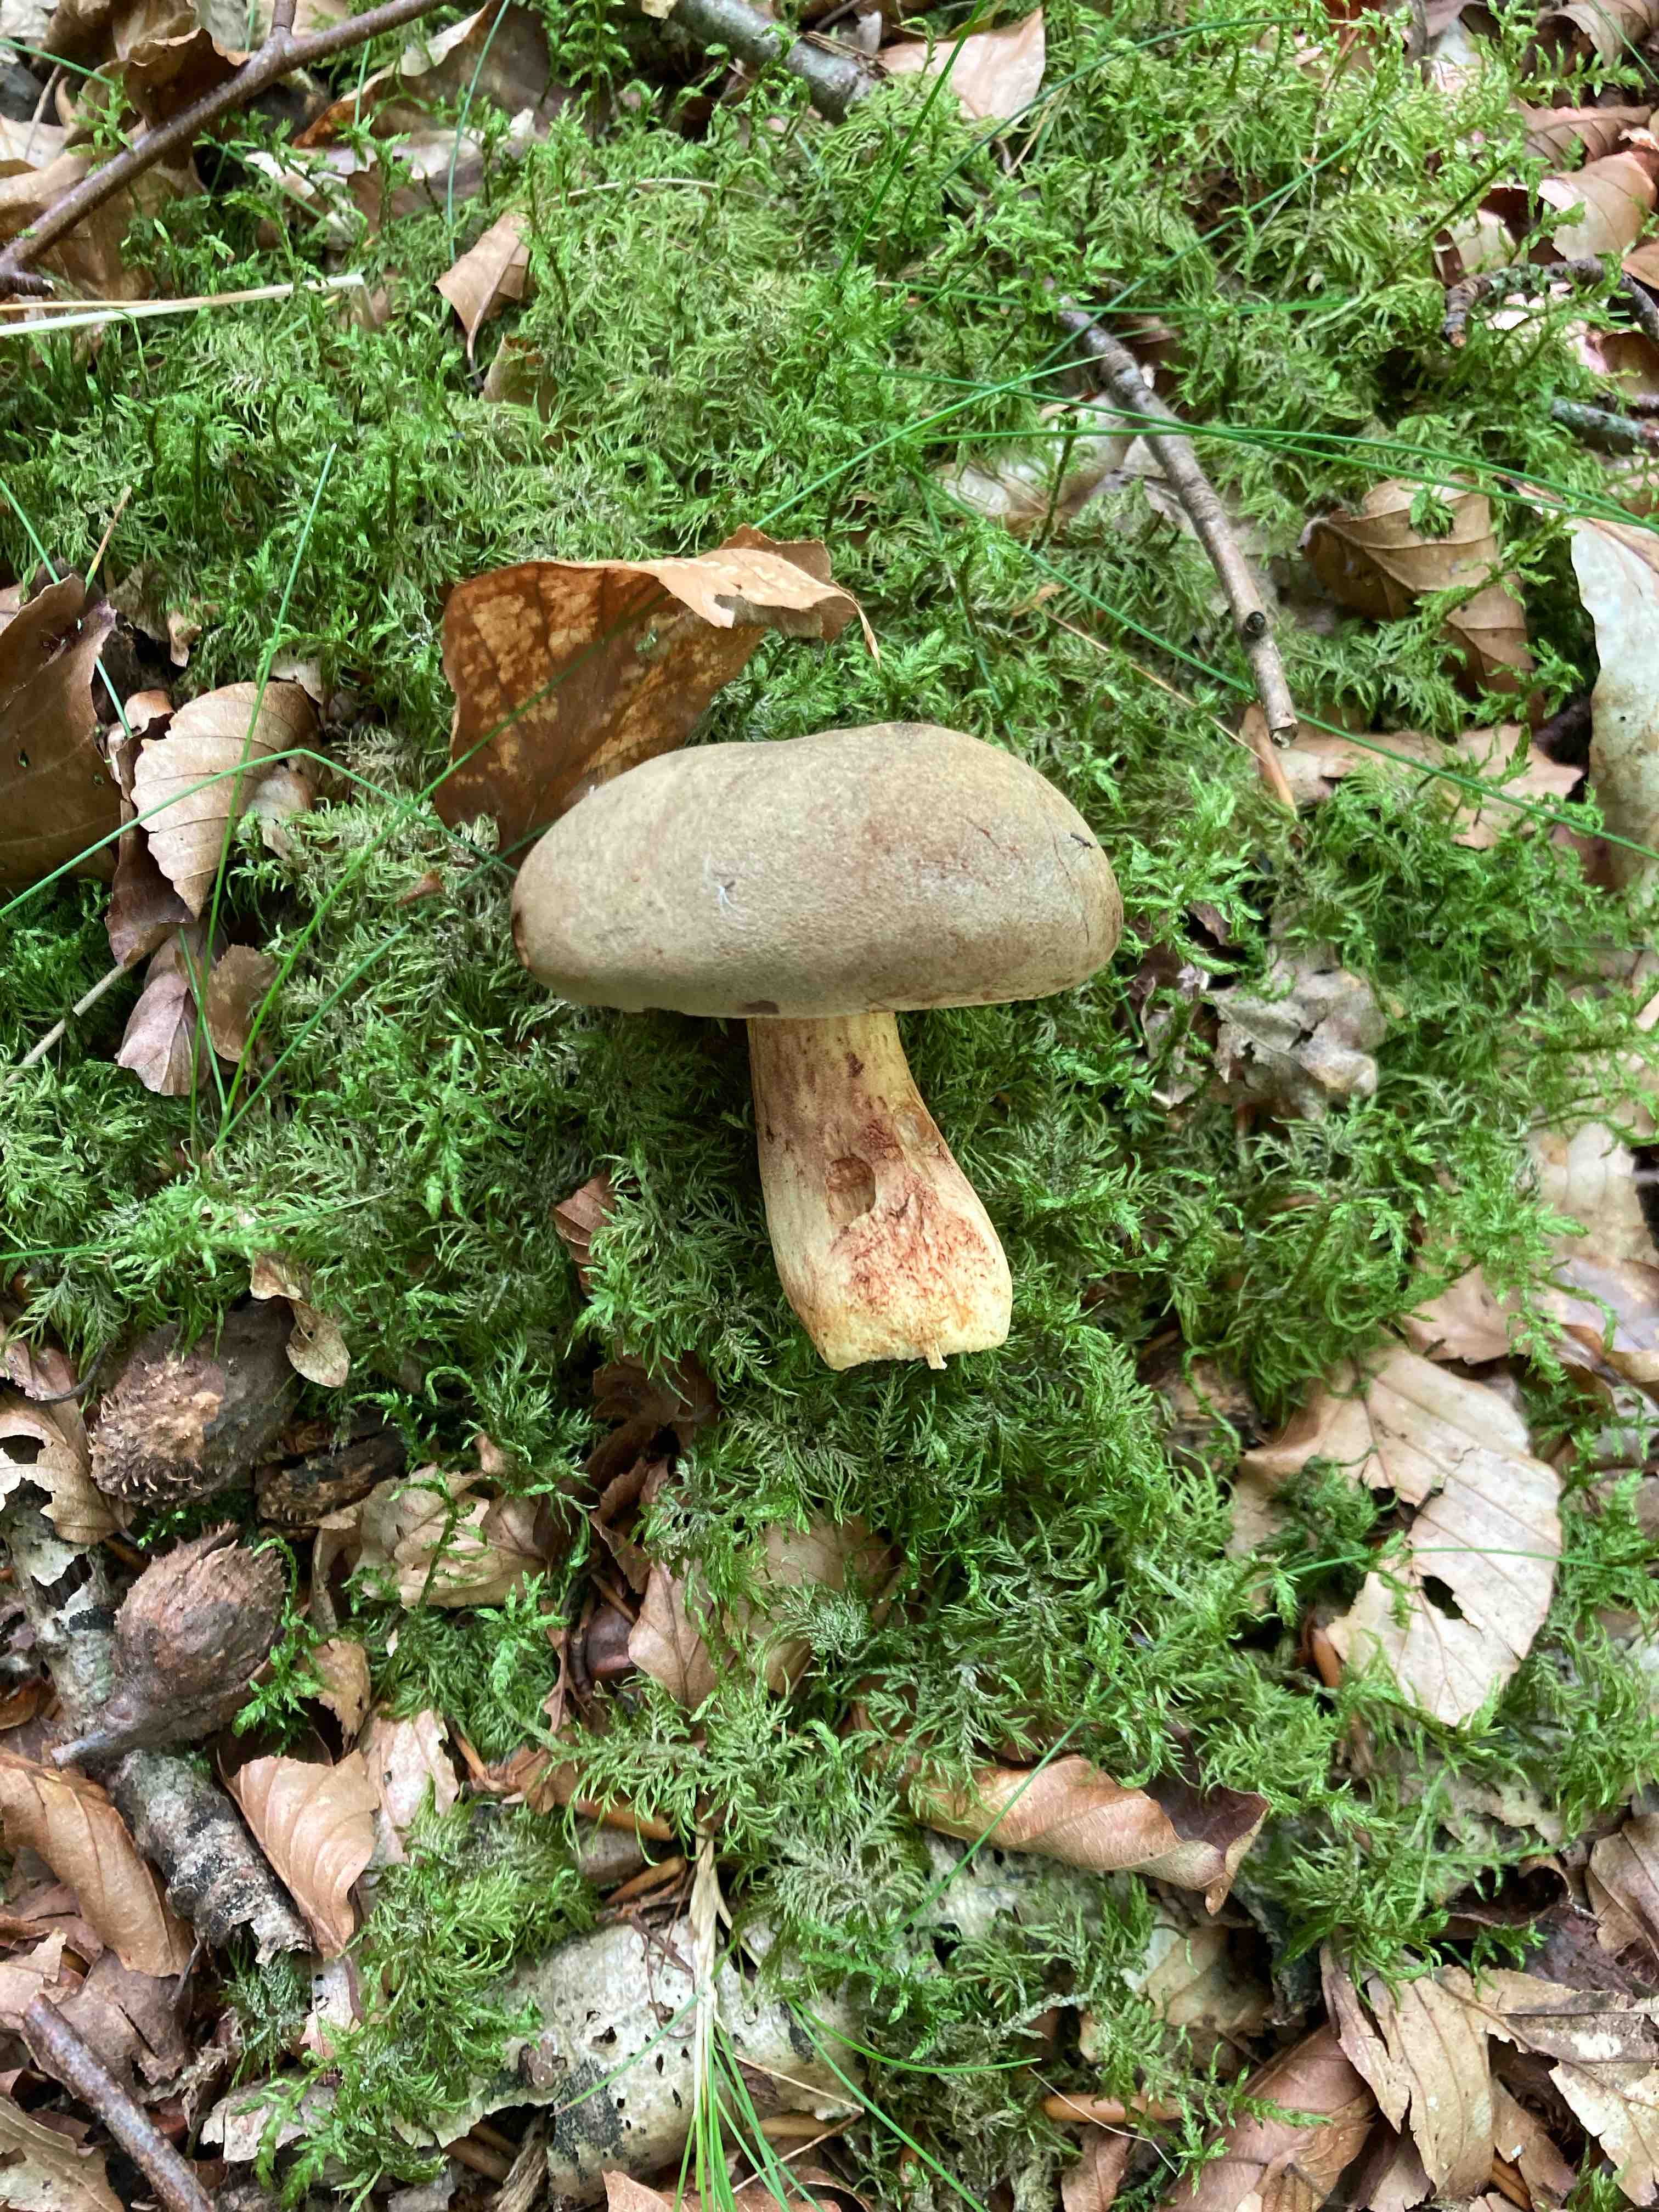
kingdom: Fungi
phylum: Basidiomycota
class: Agaricomycetes
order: Boletales
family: Boletaceae
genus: Xerocomus
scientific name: Xerocomus
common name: filtrørhat
